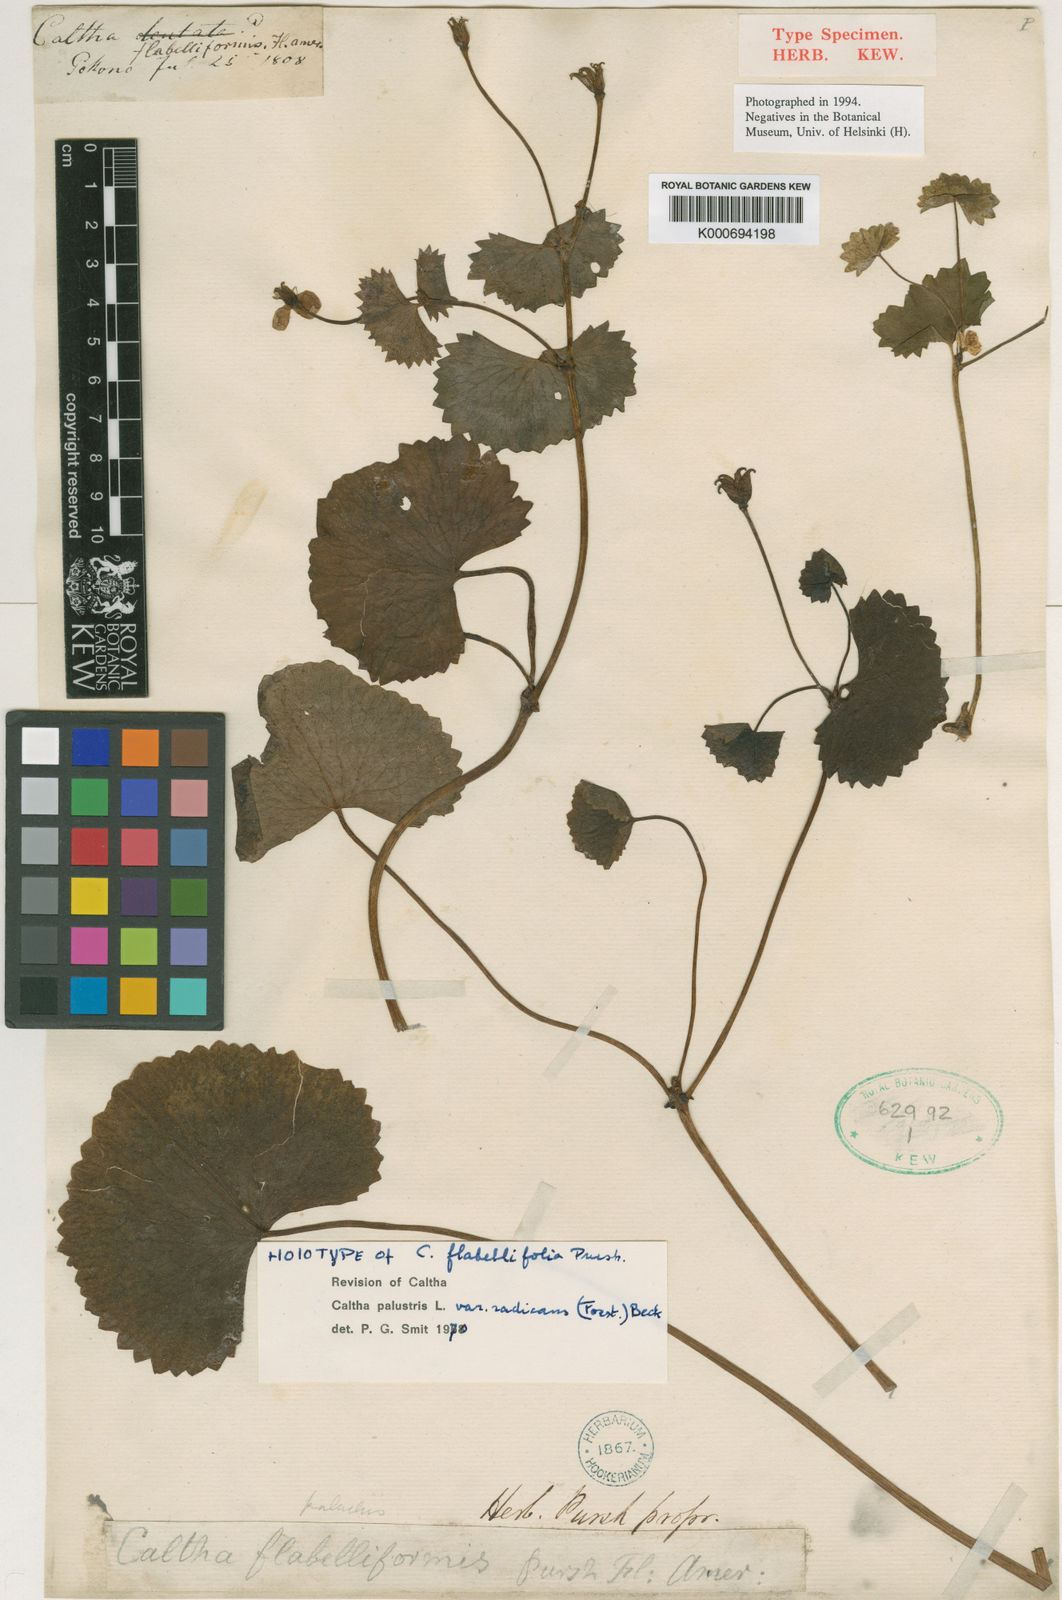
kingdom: Plantae
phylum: Tracheophyta
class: Magnoliopsida
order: Ranunculales
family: Ranunculaceae
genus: Caltha
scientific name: Caltha palustris
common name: Marsh marigold
